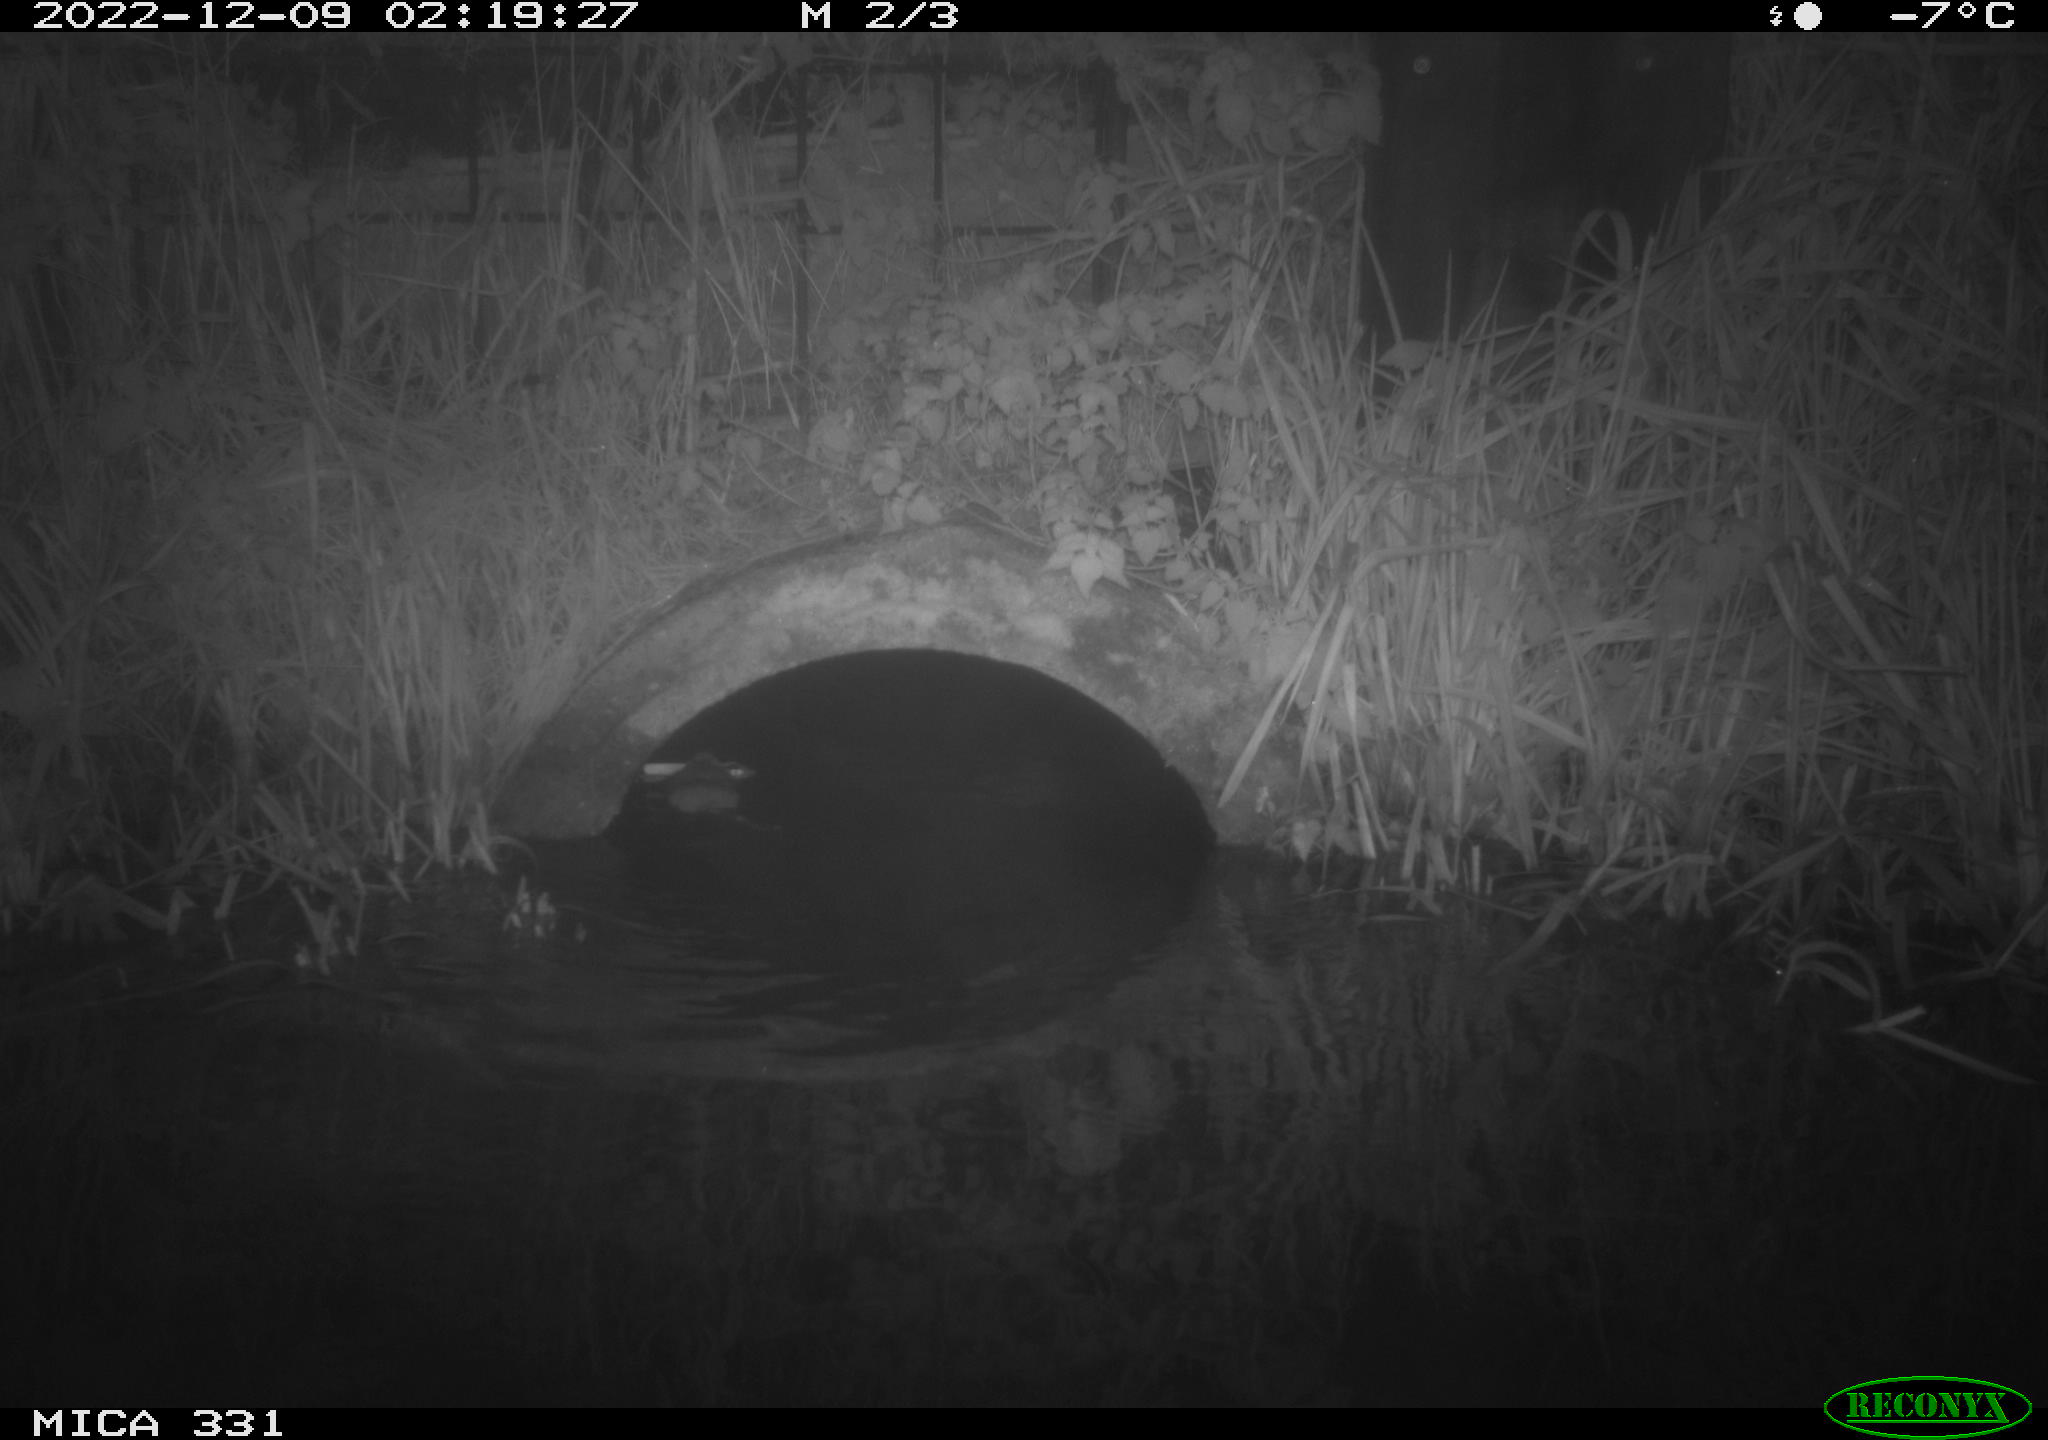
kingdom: Animalia
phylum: Chordata
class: Mammalia
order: Rodentia
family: Muridae
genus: Rattus
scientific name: Rattus norvegicus
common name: Brown rat
